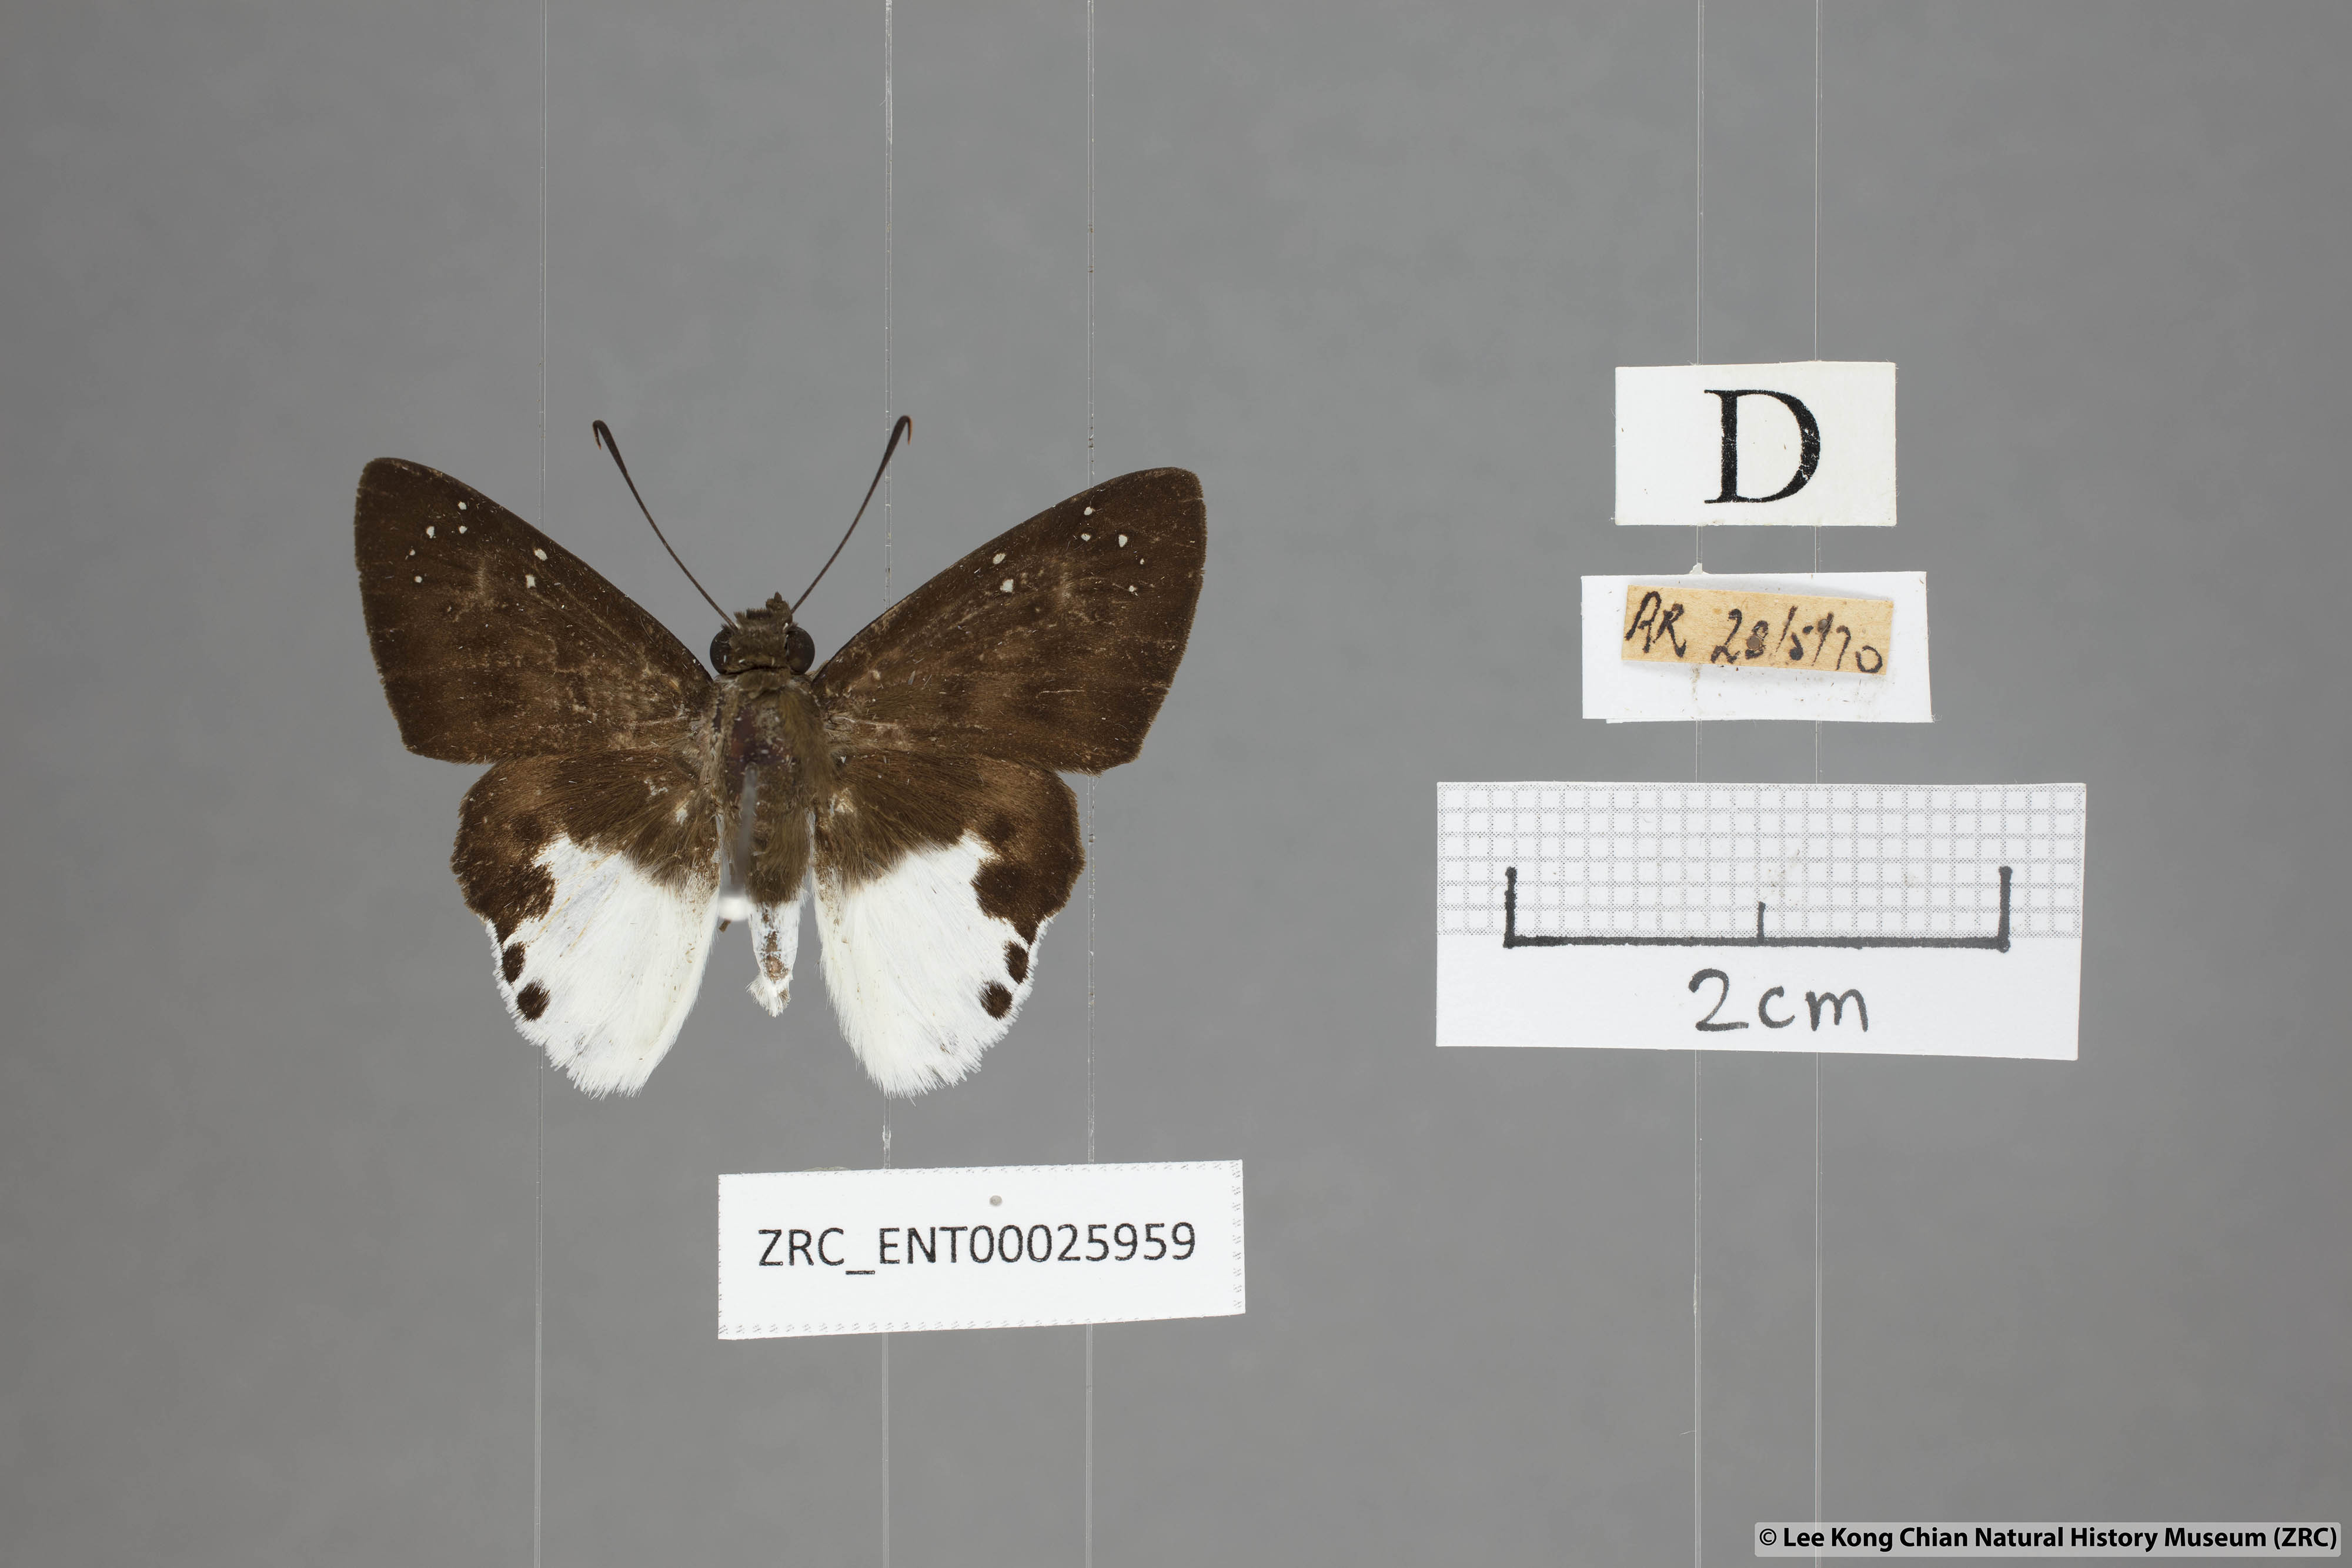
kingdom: Animalia
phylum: Arthropoda
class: Insecta
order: Lepidoptera
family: Hesperiidae
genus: Tagiades
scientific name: Tagiades calligana
